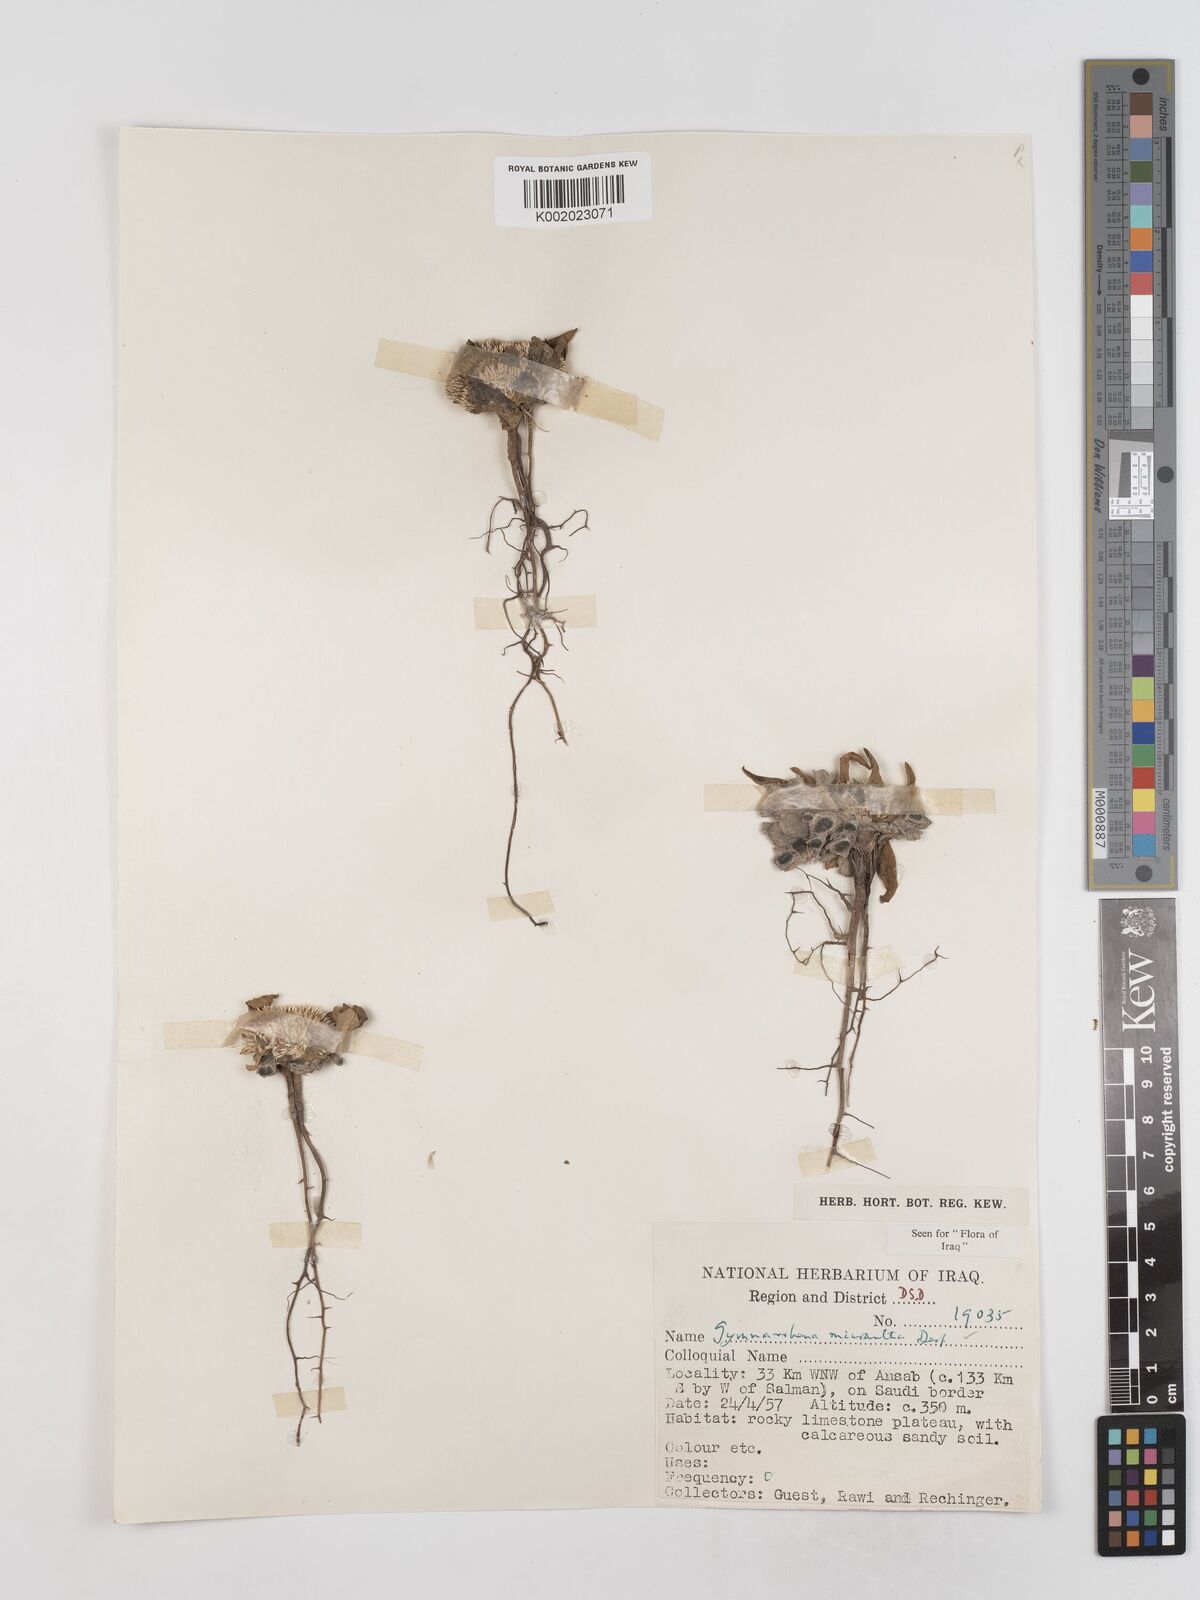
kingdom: Plantae
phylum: Tracheophyta
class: Magnoliopsida
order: Asterales
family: Asteraceae
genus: Gymnarrhena
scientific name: Gymnarrhena micrantha
